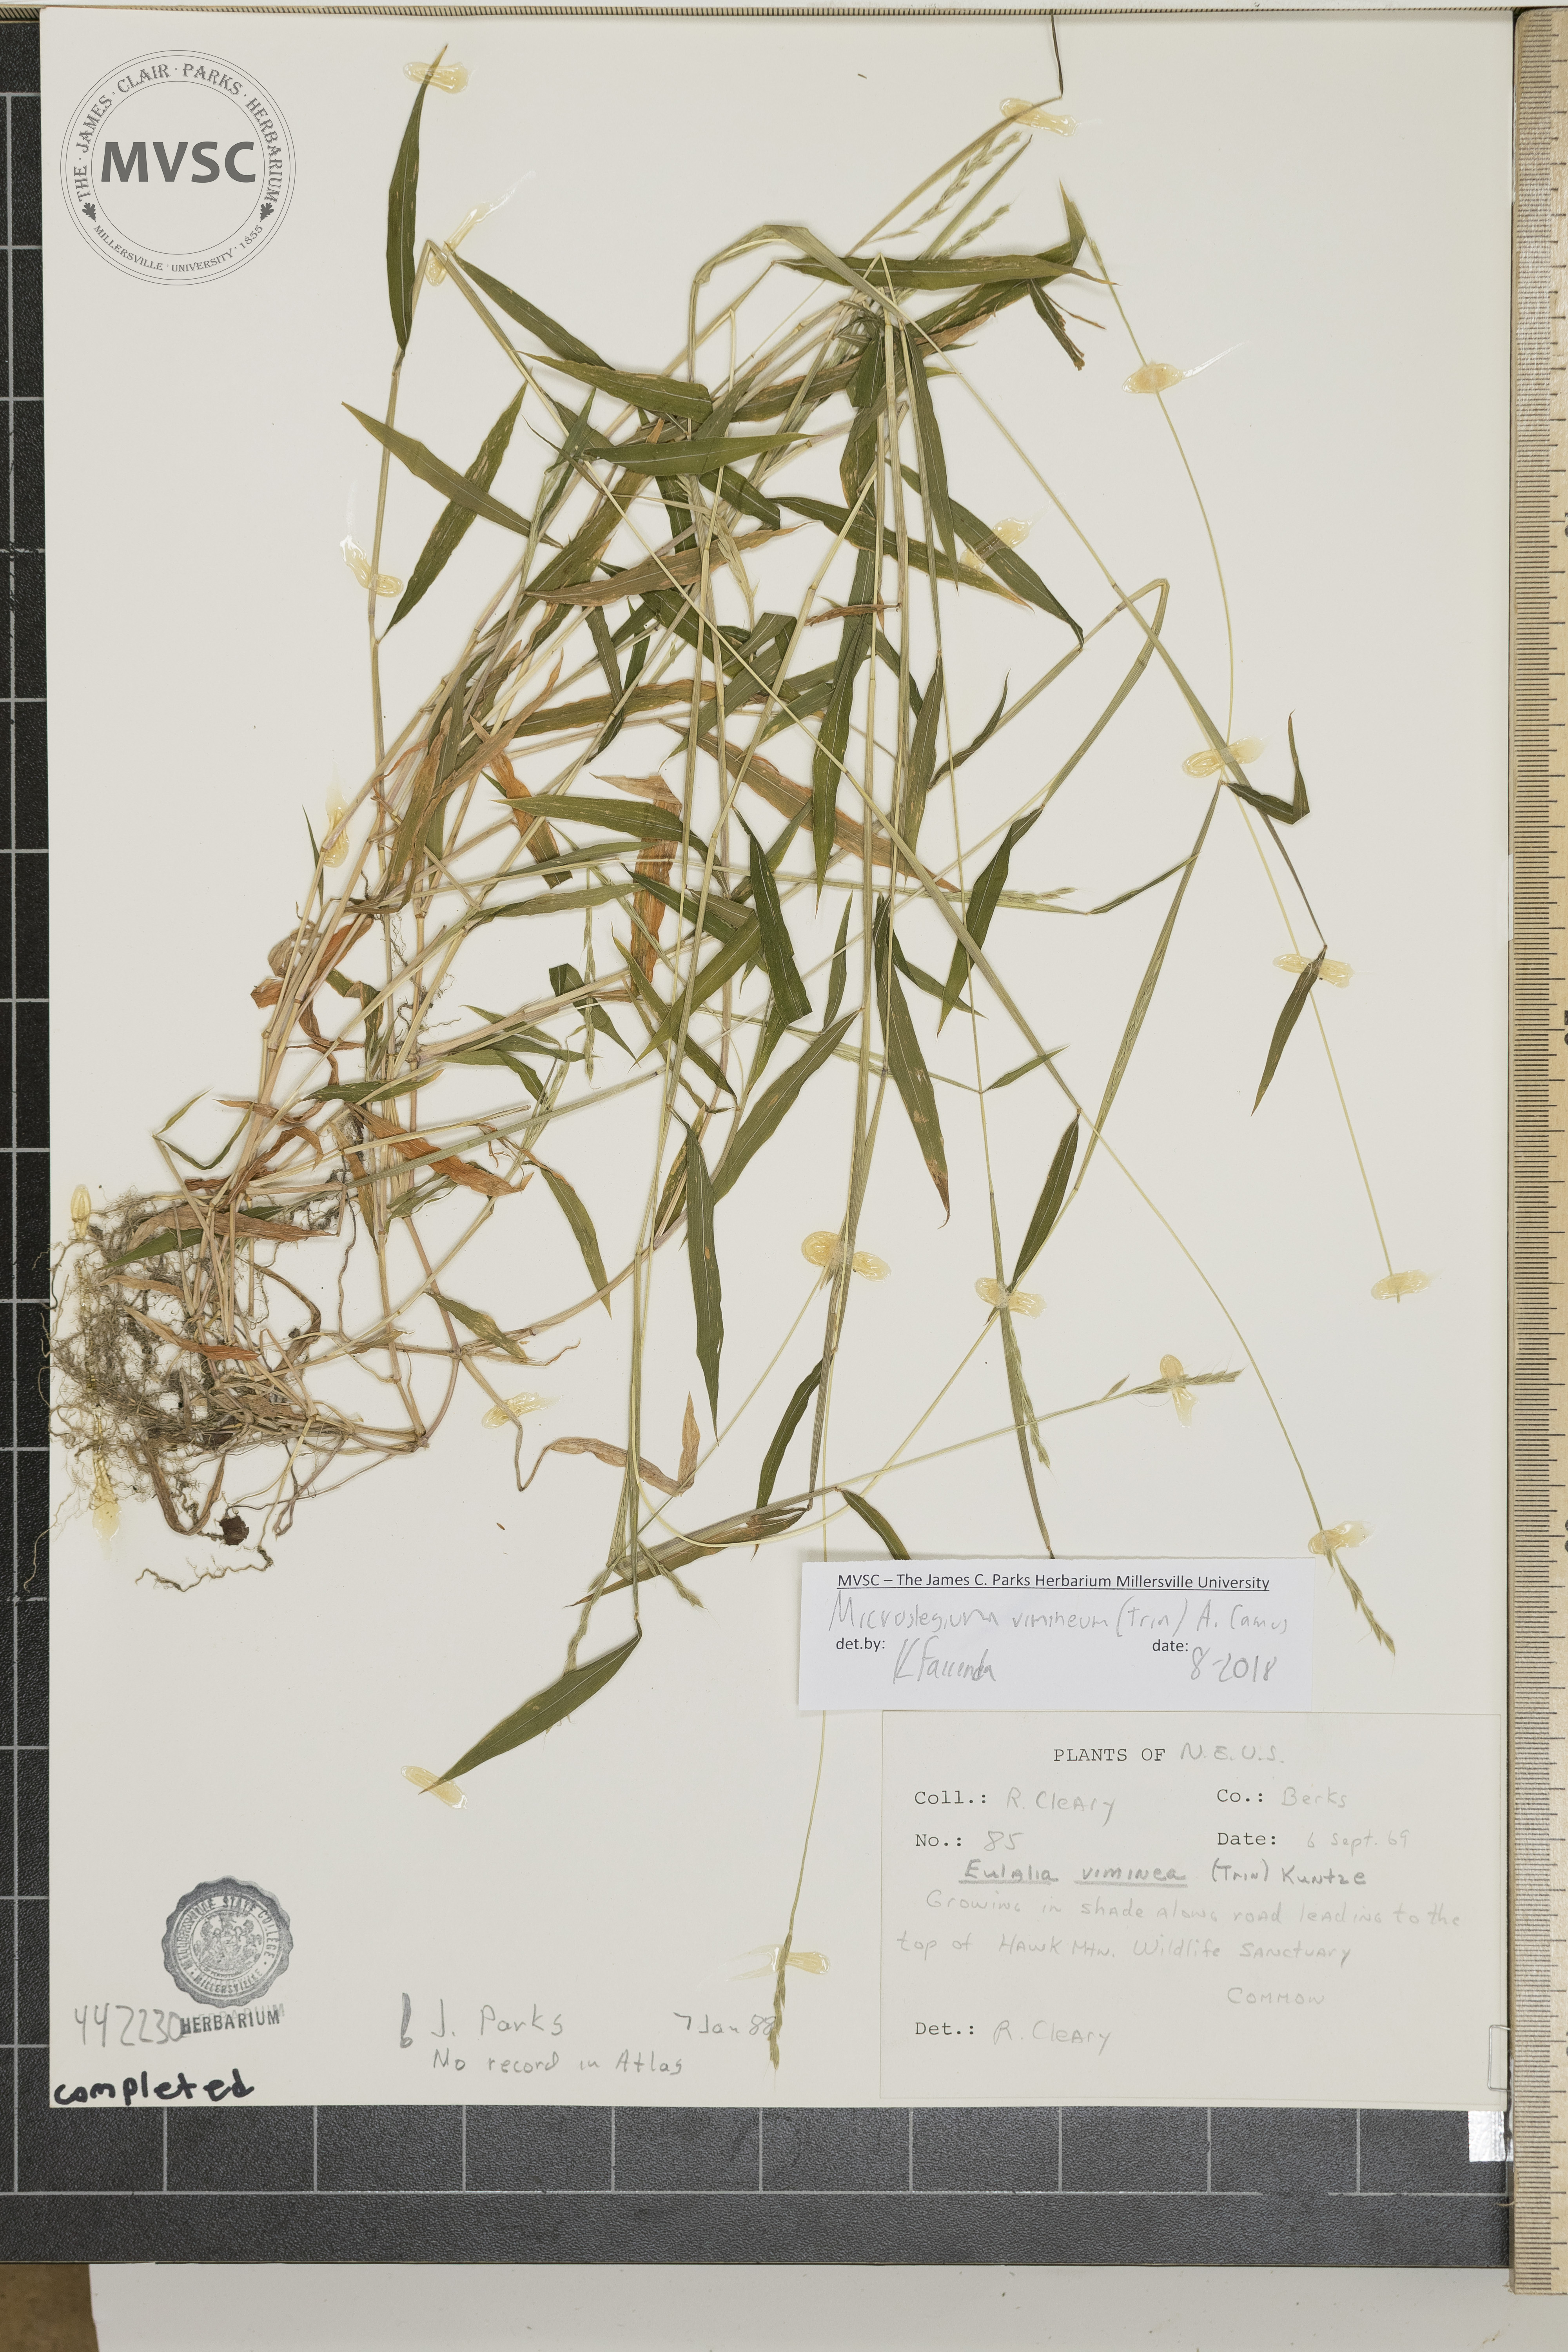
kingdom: Plantae
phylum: Tracheophyta
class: Liliopsida
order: Poales
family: Poaceae
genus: Microstegium
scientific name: Microstegium vimineum
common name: Japanese stiltgrass
